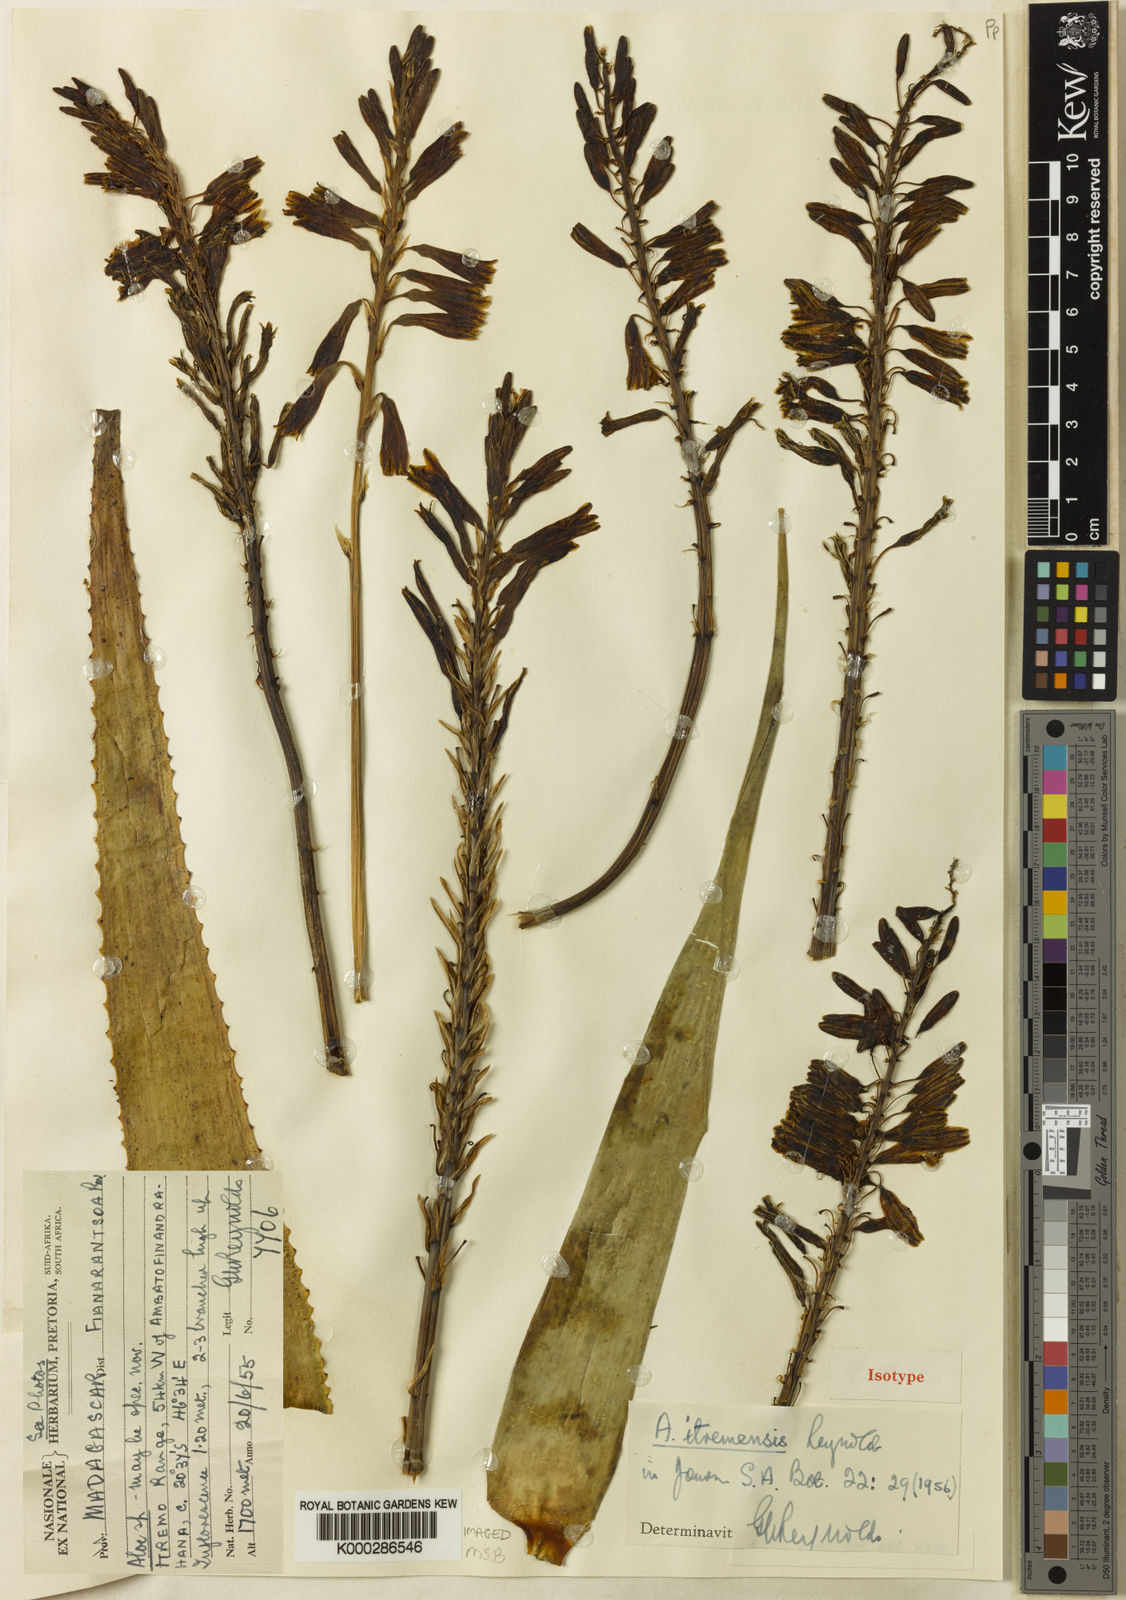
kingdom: Plantae
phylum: Tracheophyta
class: Liliopsida
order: Asparagales
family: Asphodelaceae
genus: Aloe
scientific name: Aloe ibitiensis
